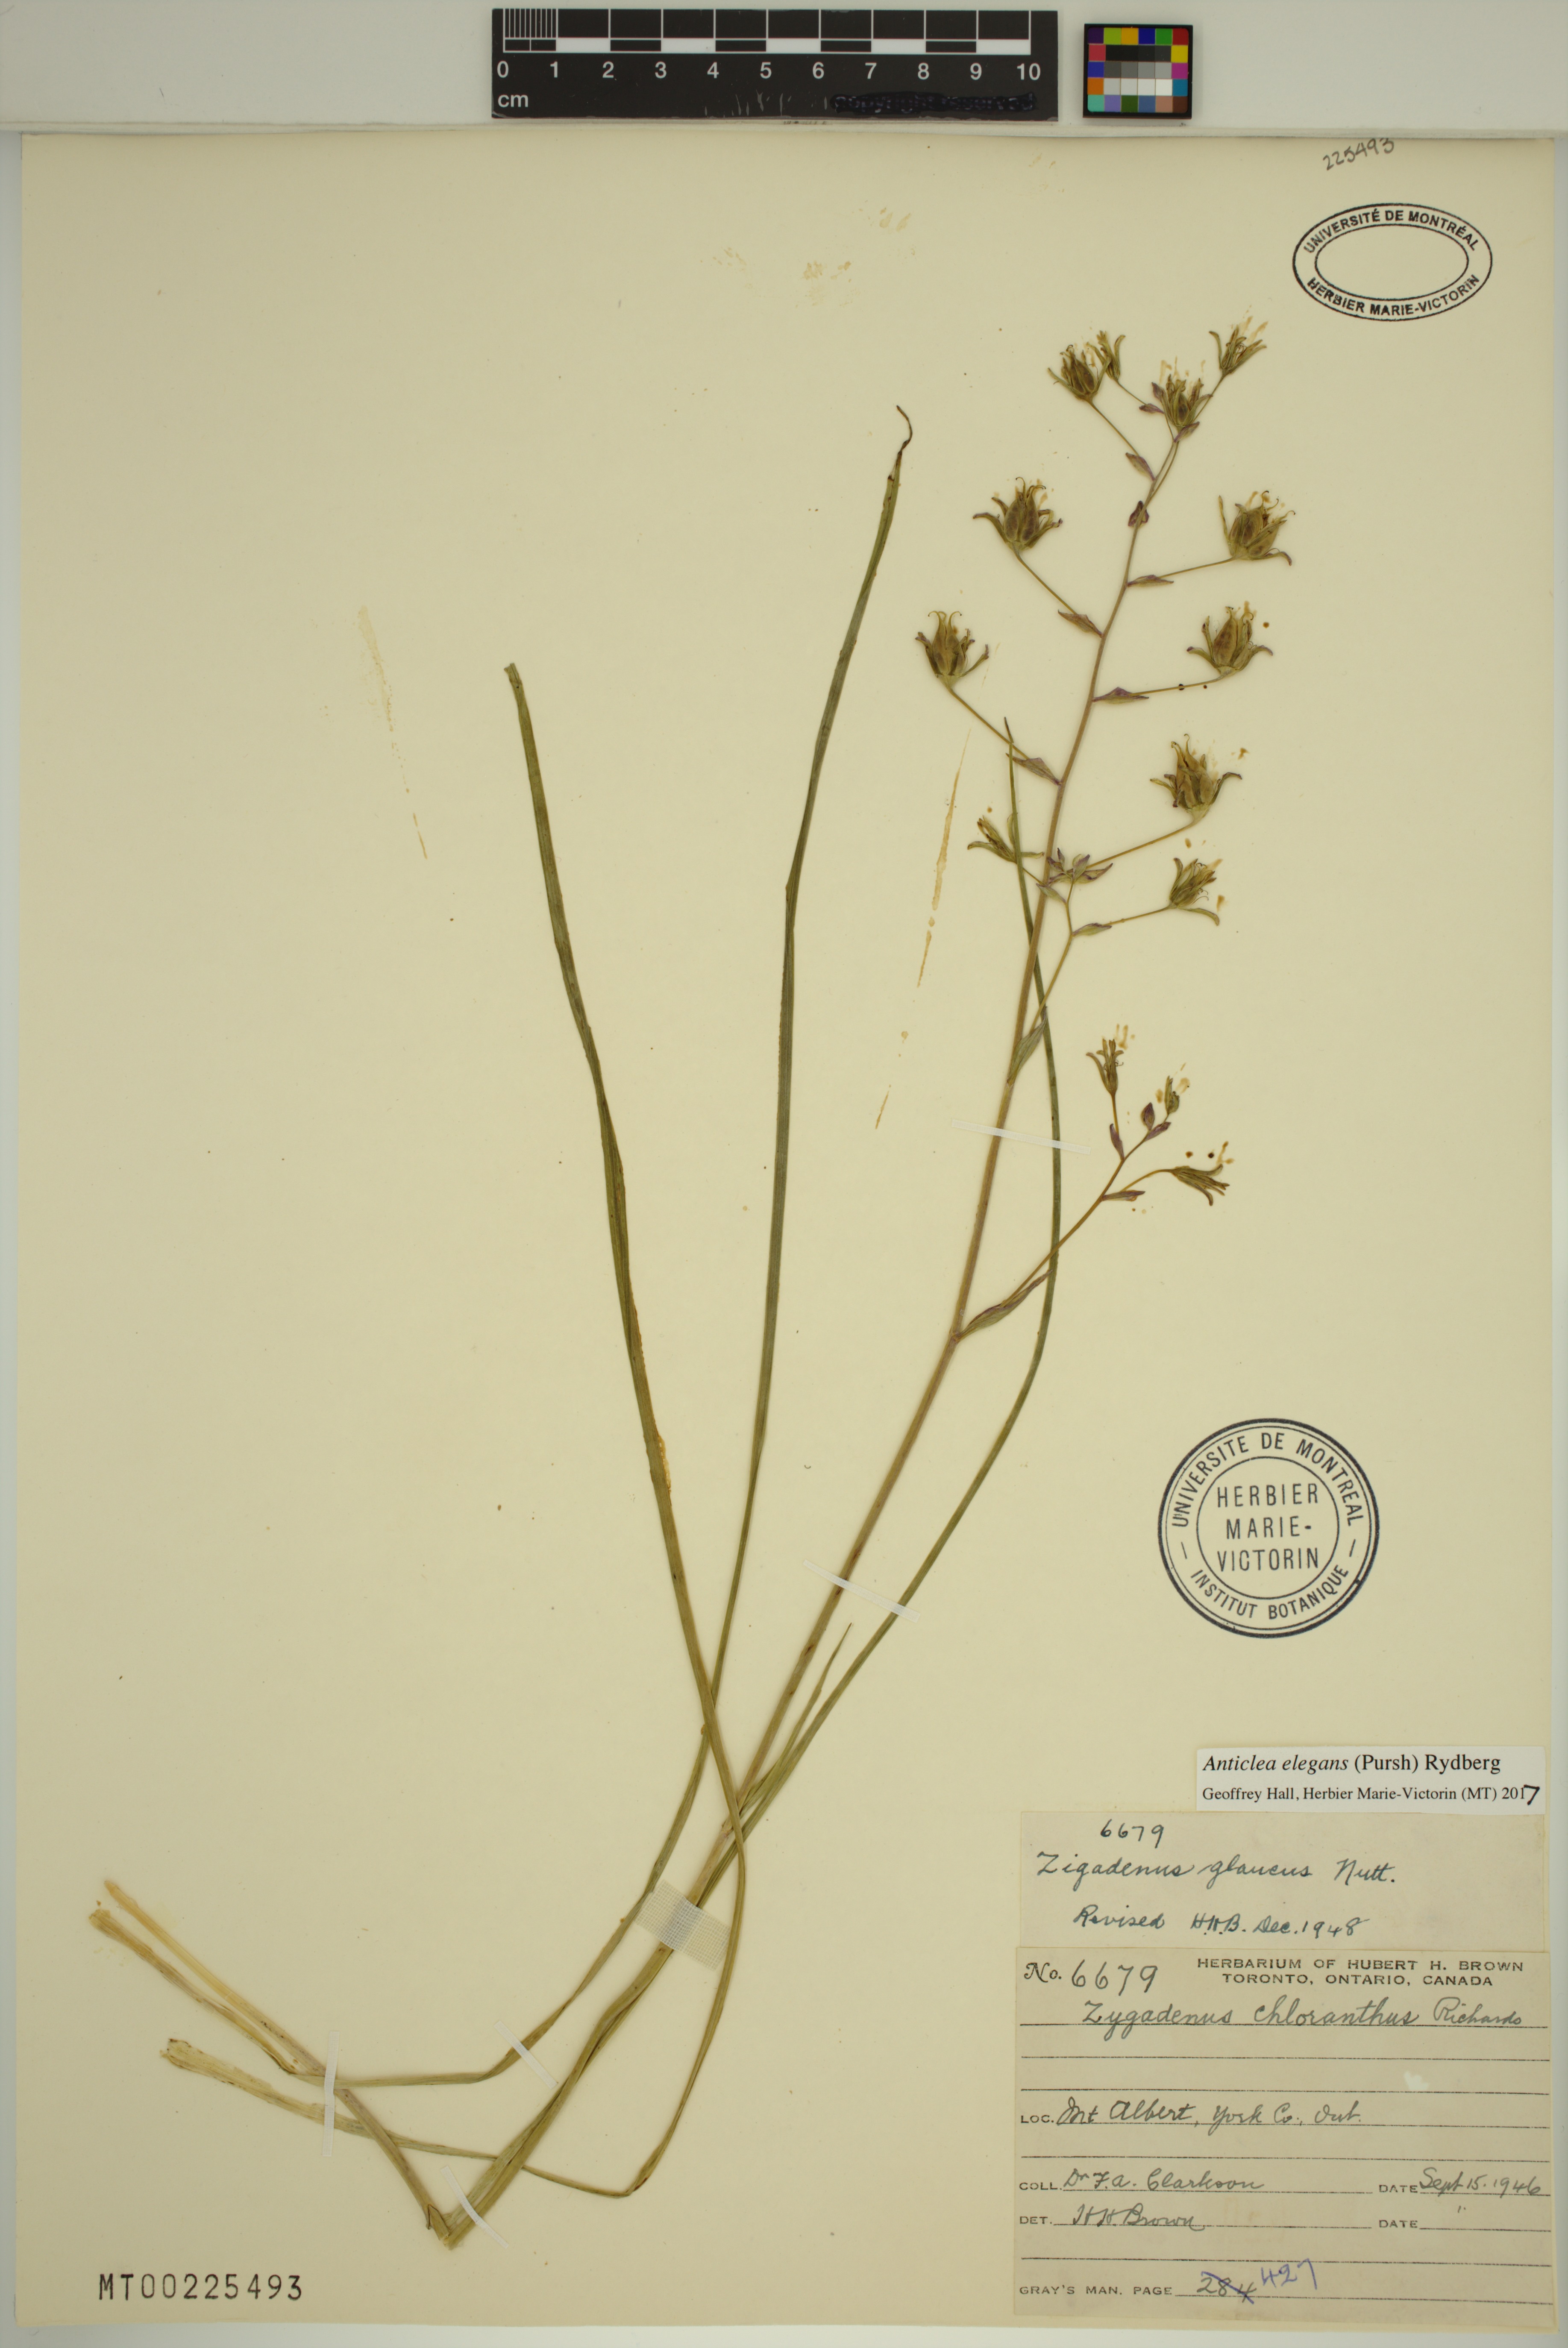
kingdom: Plantae
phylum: Tracheophyta
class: Liliopsida
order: Liliales
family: Melanthiaceae
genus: Anticlea
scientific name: Anticlea elegans
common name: Mountain death camas
